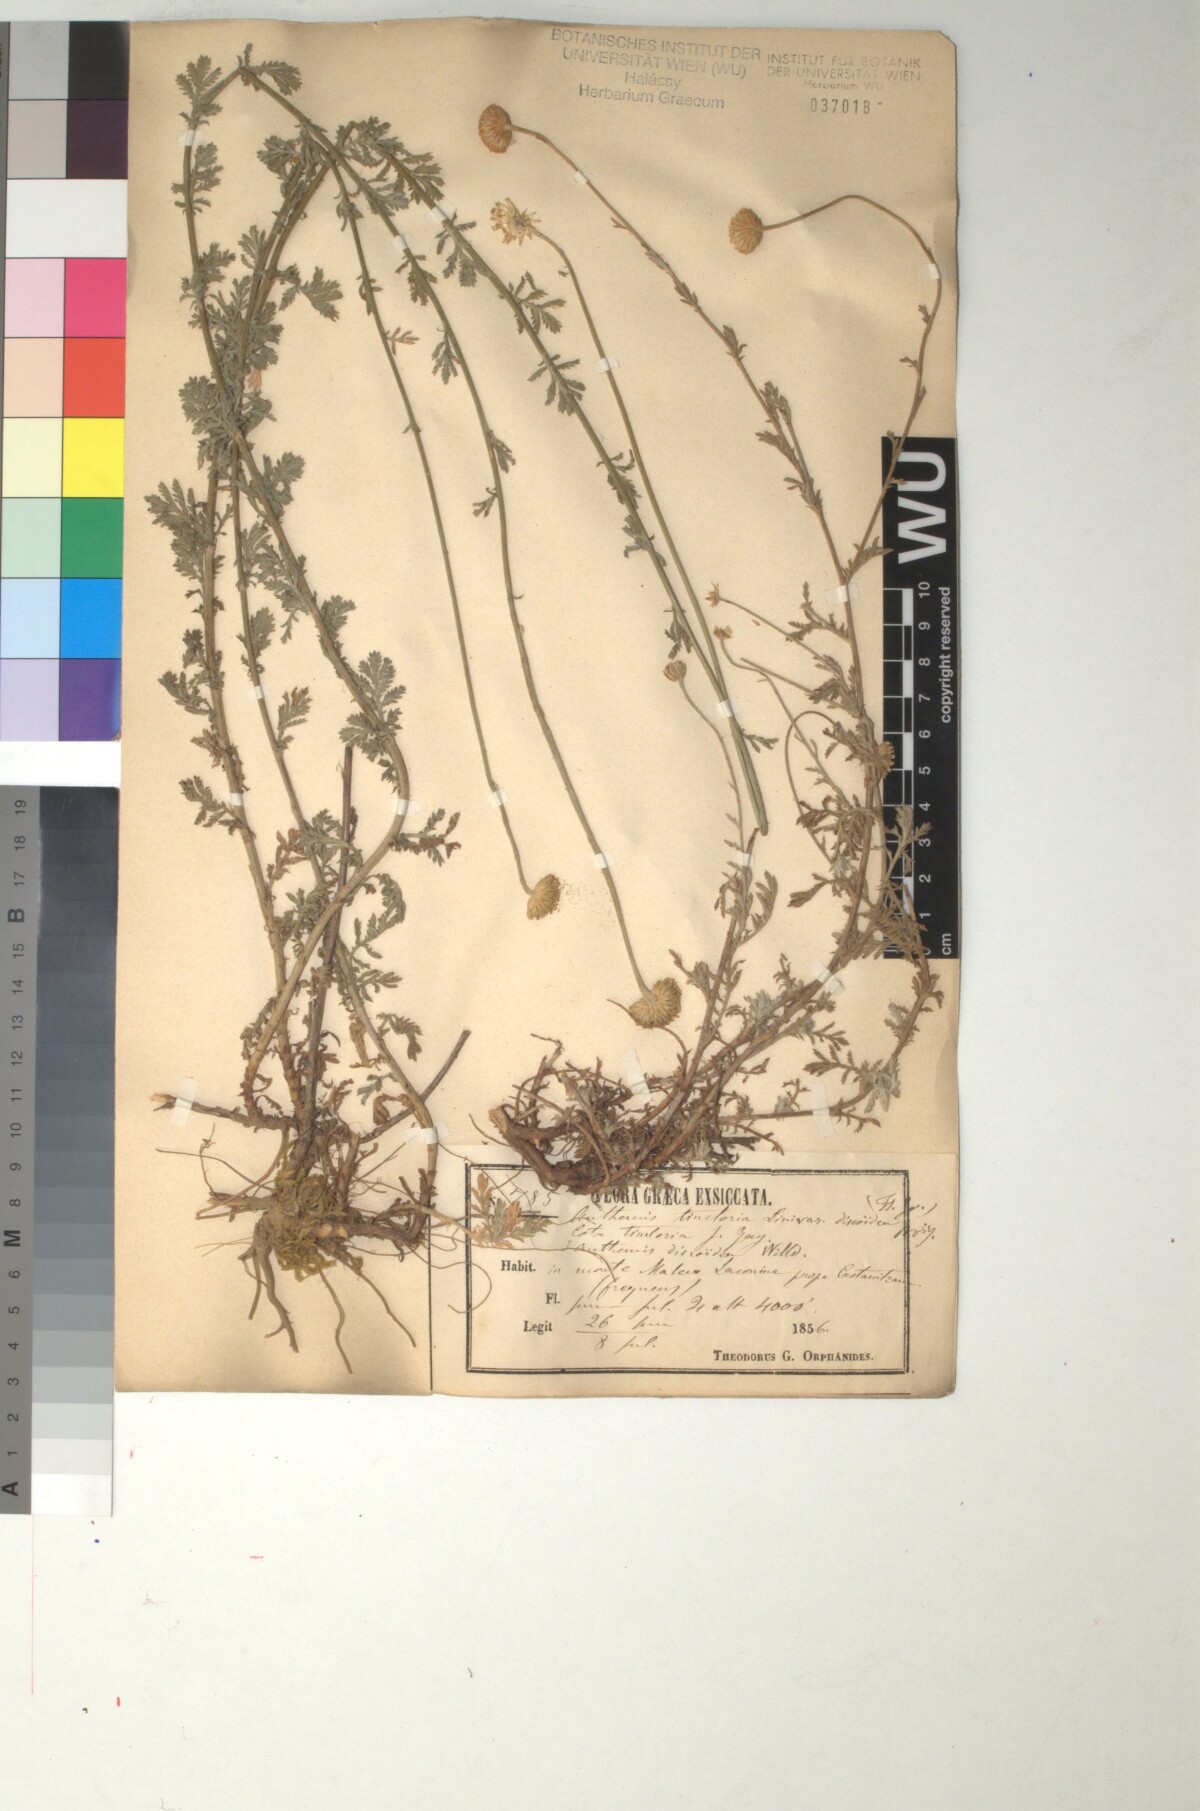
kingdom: Plantae
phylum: Tracheophyta
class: Magnoliopsida
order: Asterales
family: Asteraceae
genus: Cota
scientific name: Cota tinctoria
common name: Golden chamomile
